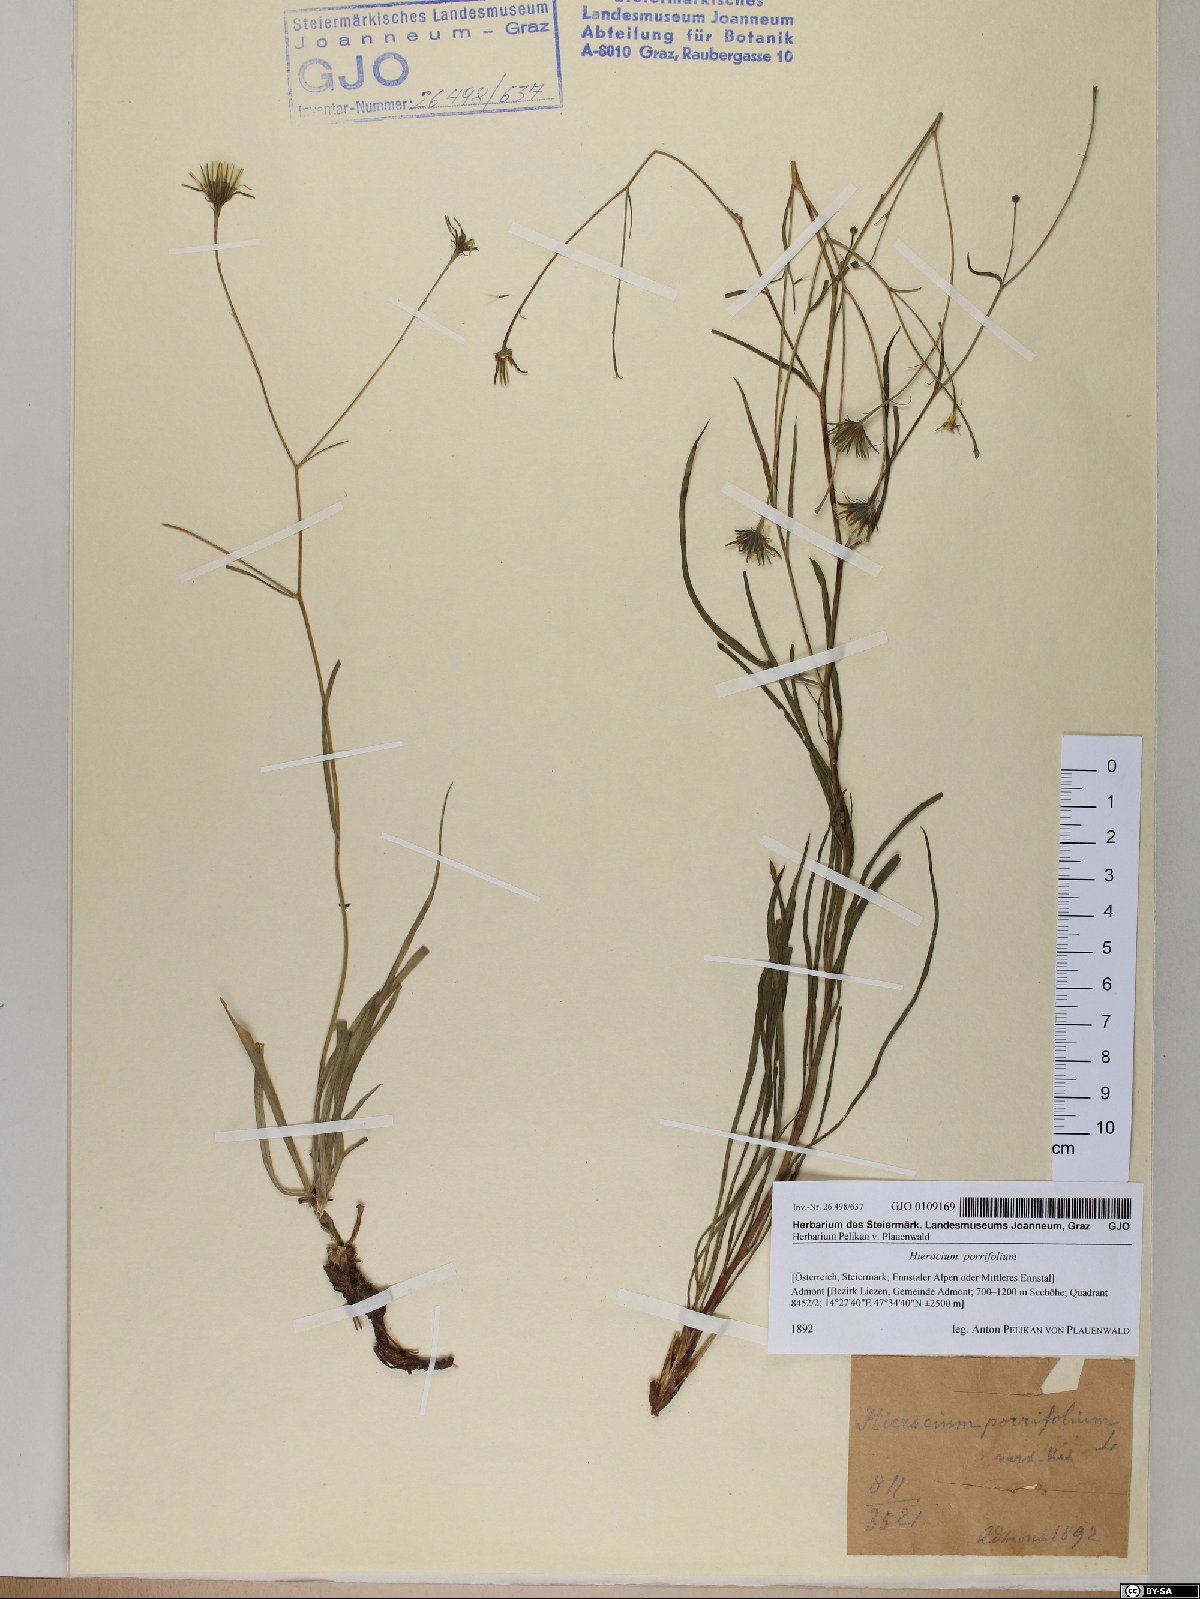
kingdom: Plantae
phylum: Tracheophyta
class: Magnoliopsida
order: Asterales
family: Asteraceae
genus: Hieracium
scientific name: Hieracium porrifolium
